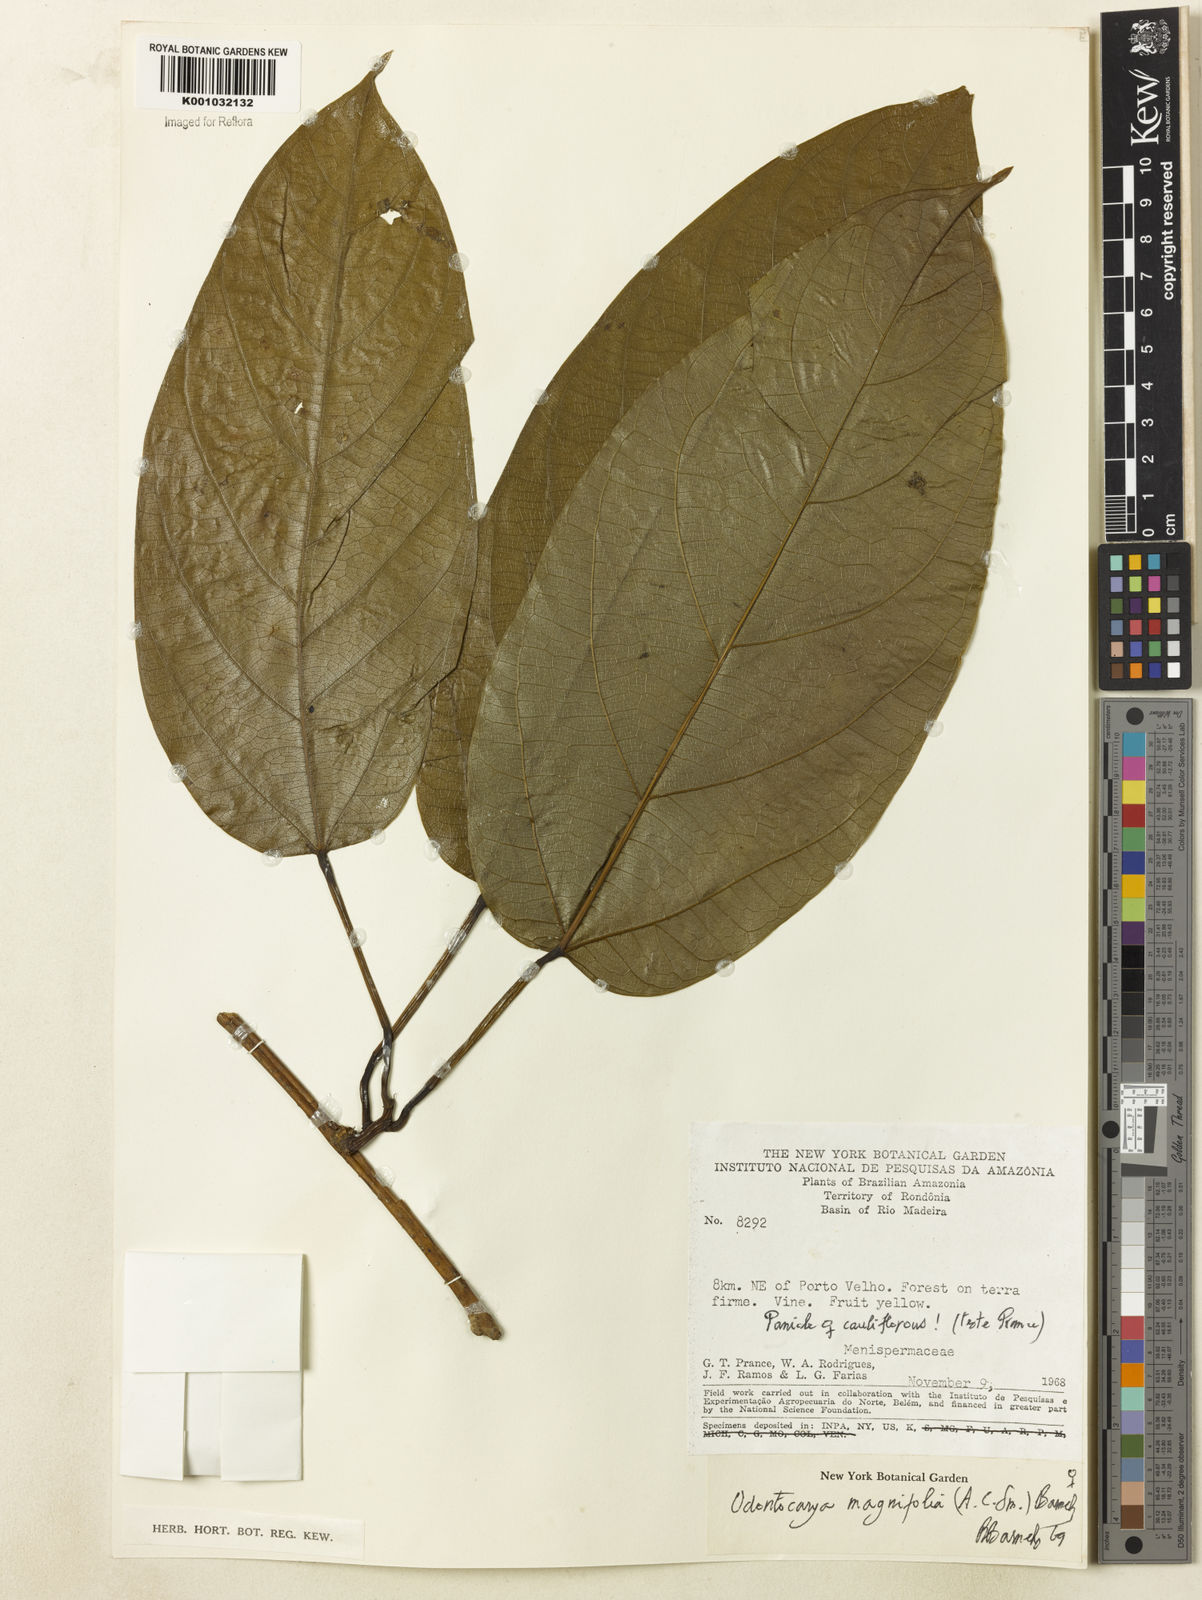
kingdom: Plantae
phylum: Tracheophyta
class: Magnoliopsida
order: Ranunculales
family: Menispermaceae
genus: Odontocarya
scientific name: Odontocarya magnifolia
